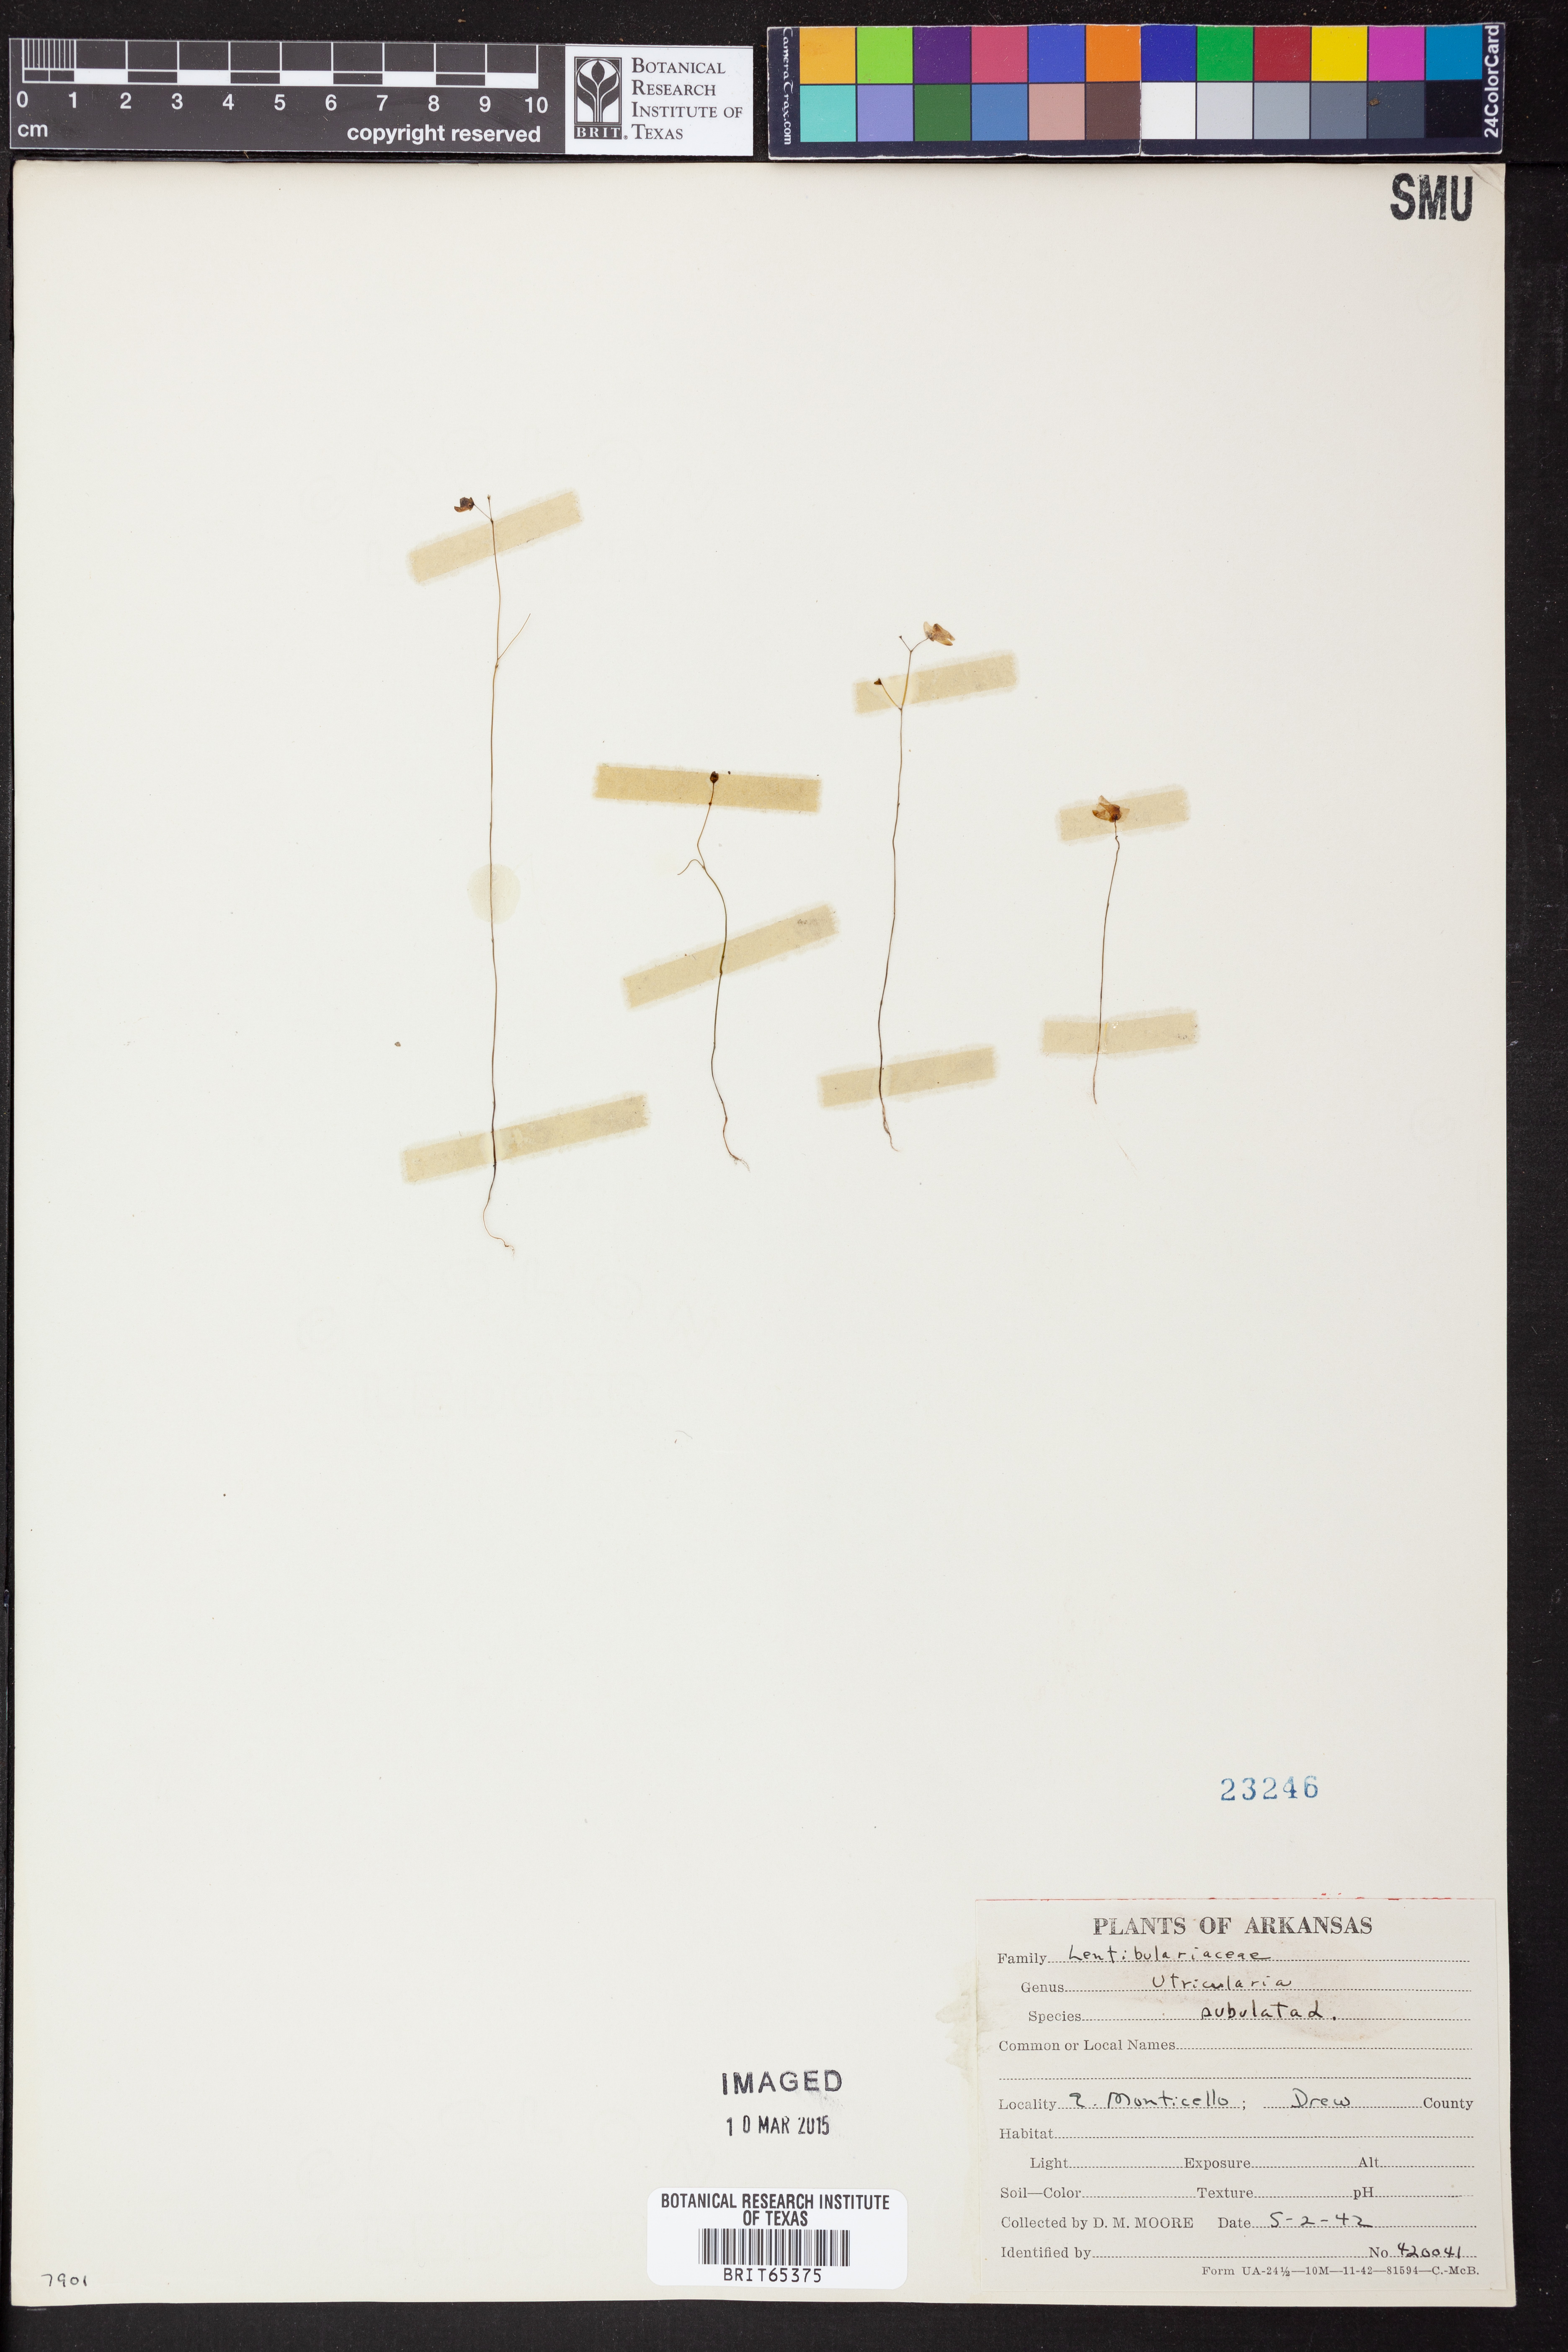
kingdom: Plantae
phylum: Tracheophyta
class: Magnoliopsida
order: Lamiales
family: Lentibulariaceae
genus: Utricularia
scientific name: Utricularia subulata
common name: Tiny bladderwort
